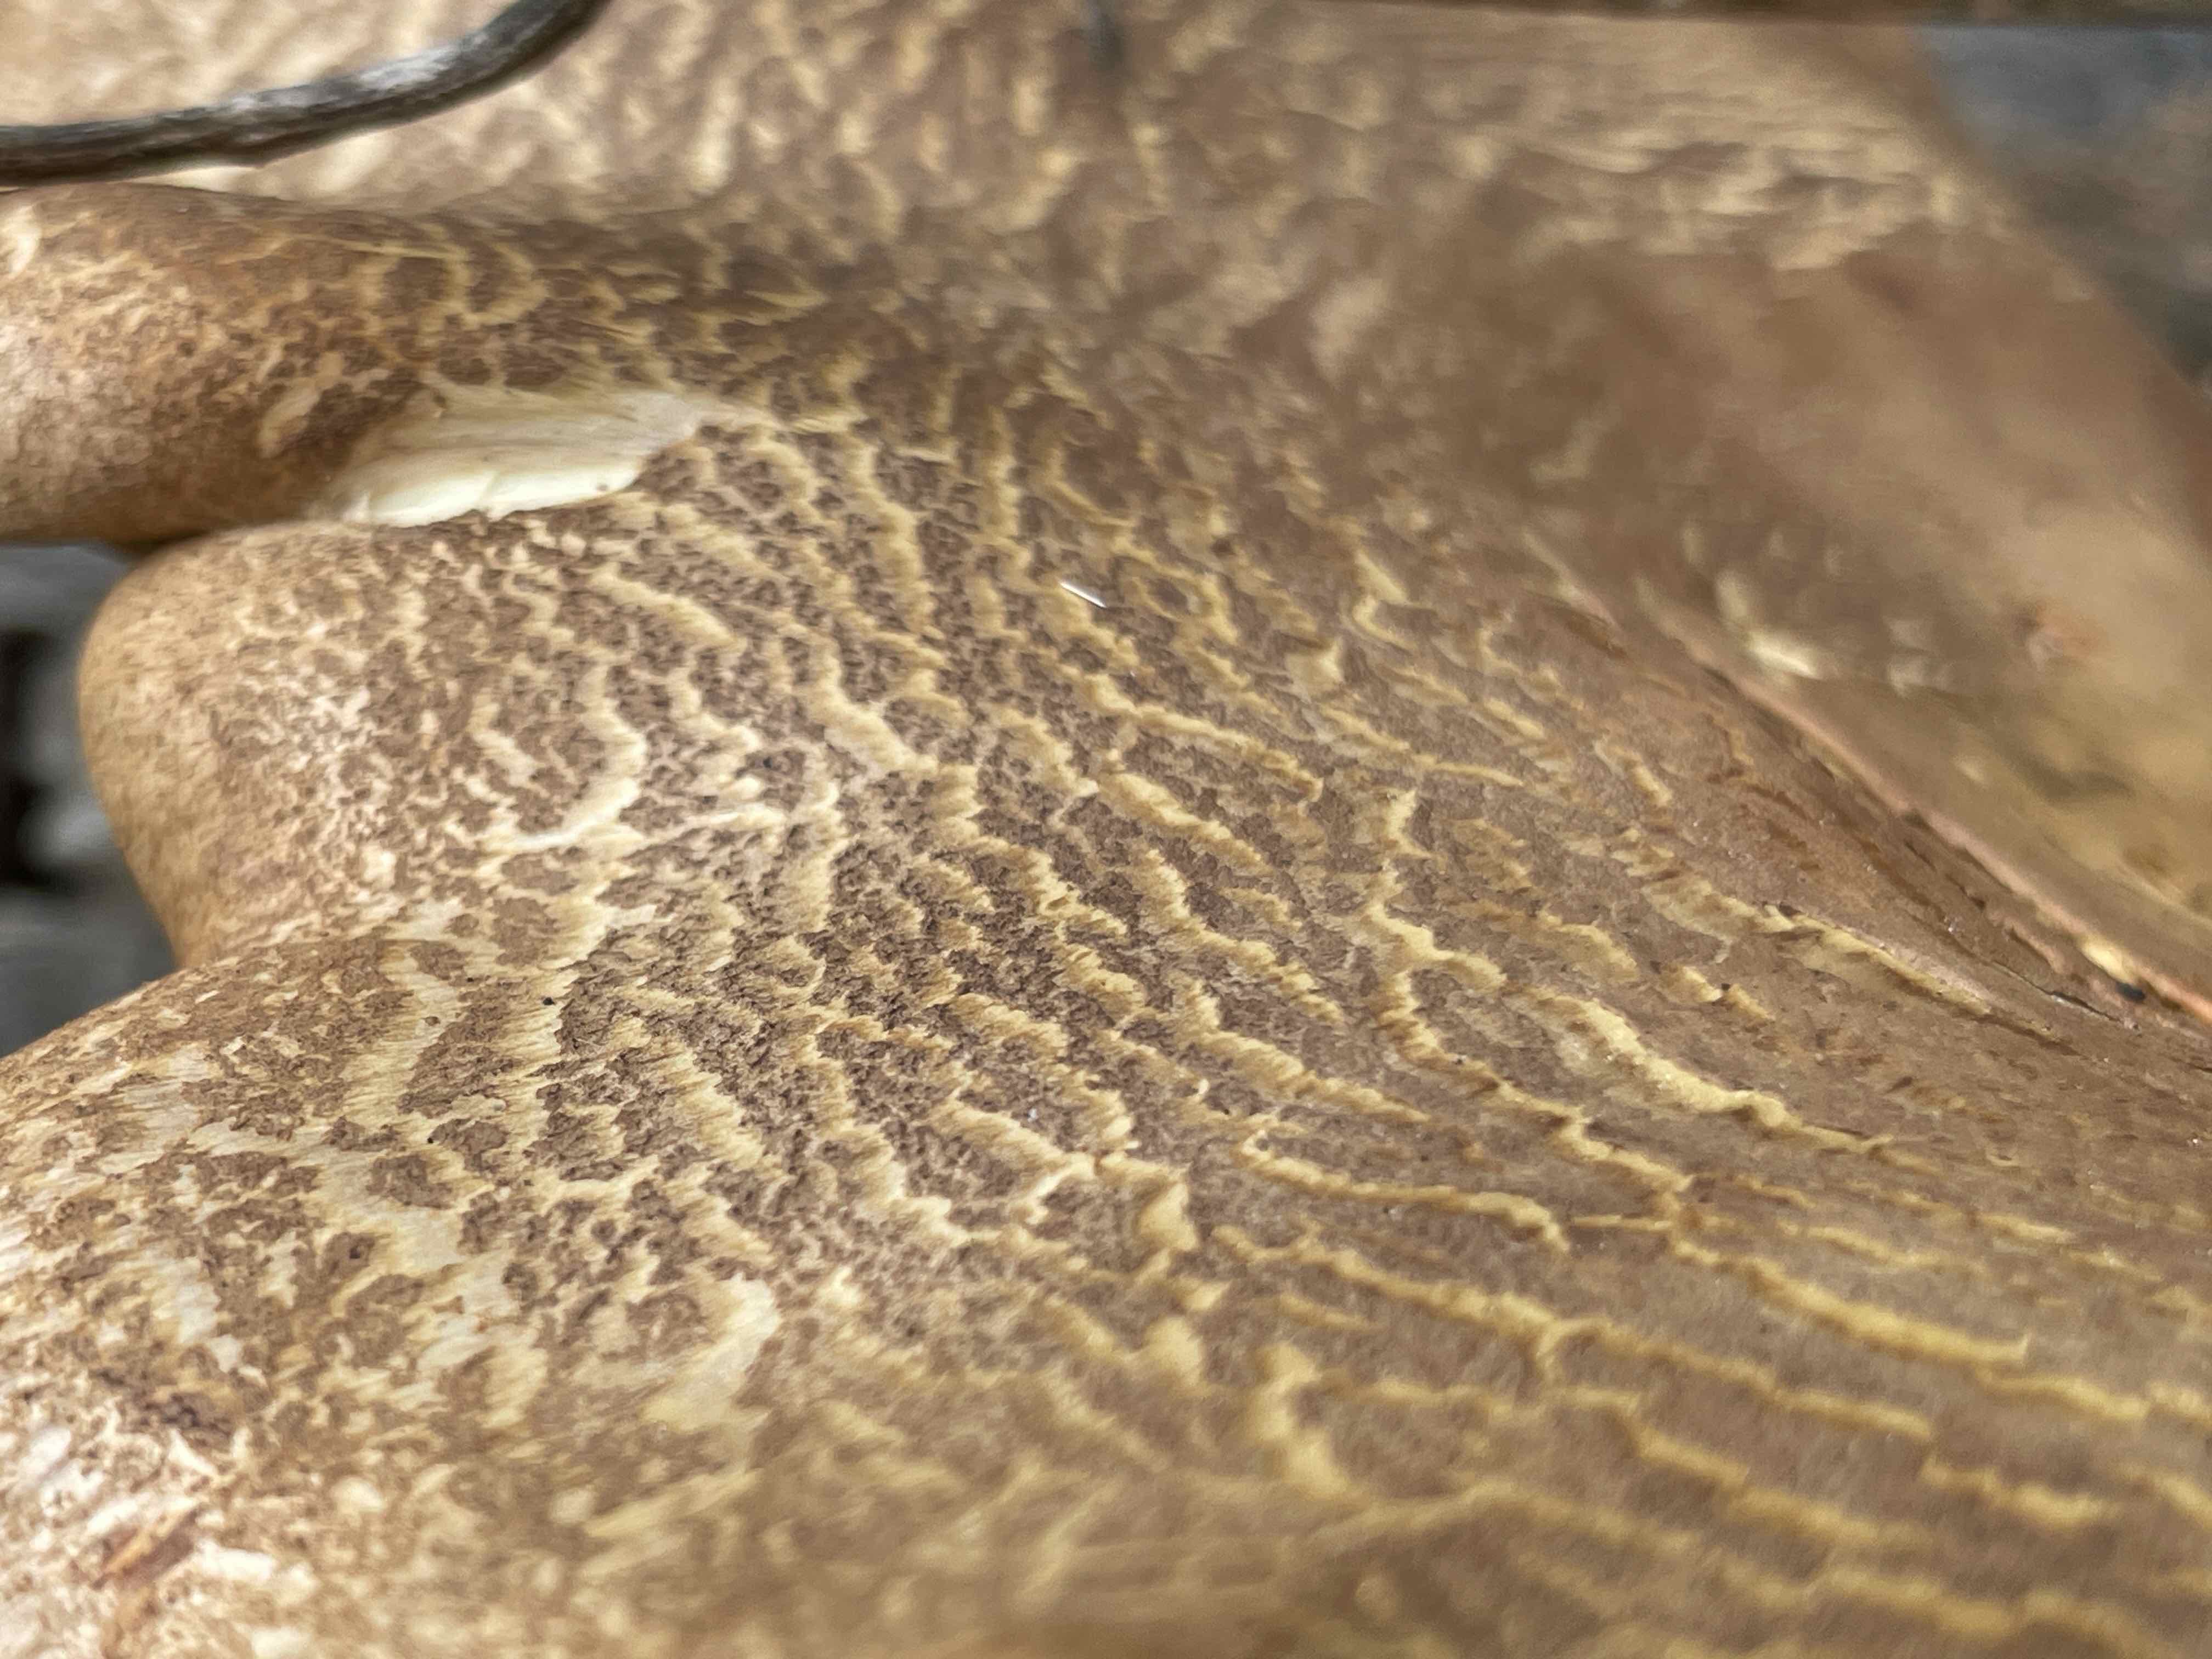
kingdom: Fungi
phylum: Basidiomycota
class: Agaricomycetes
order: Boletales
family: Tapinellaceae
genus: Tapinella
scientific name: Tapinella atrotomentosa
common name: sortfiltet viftesvamp
